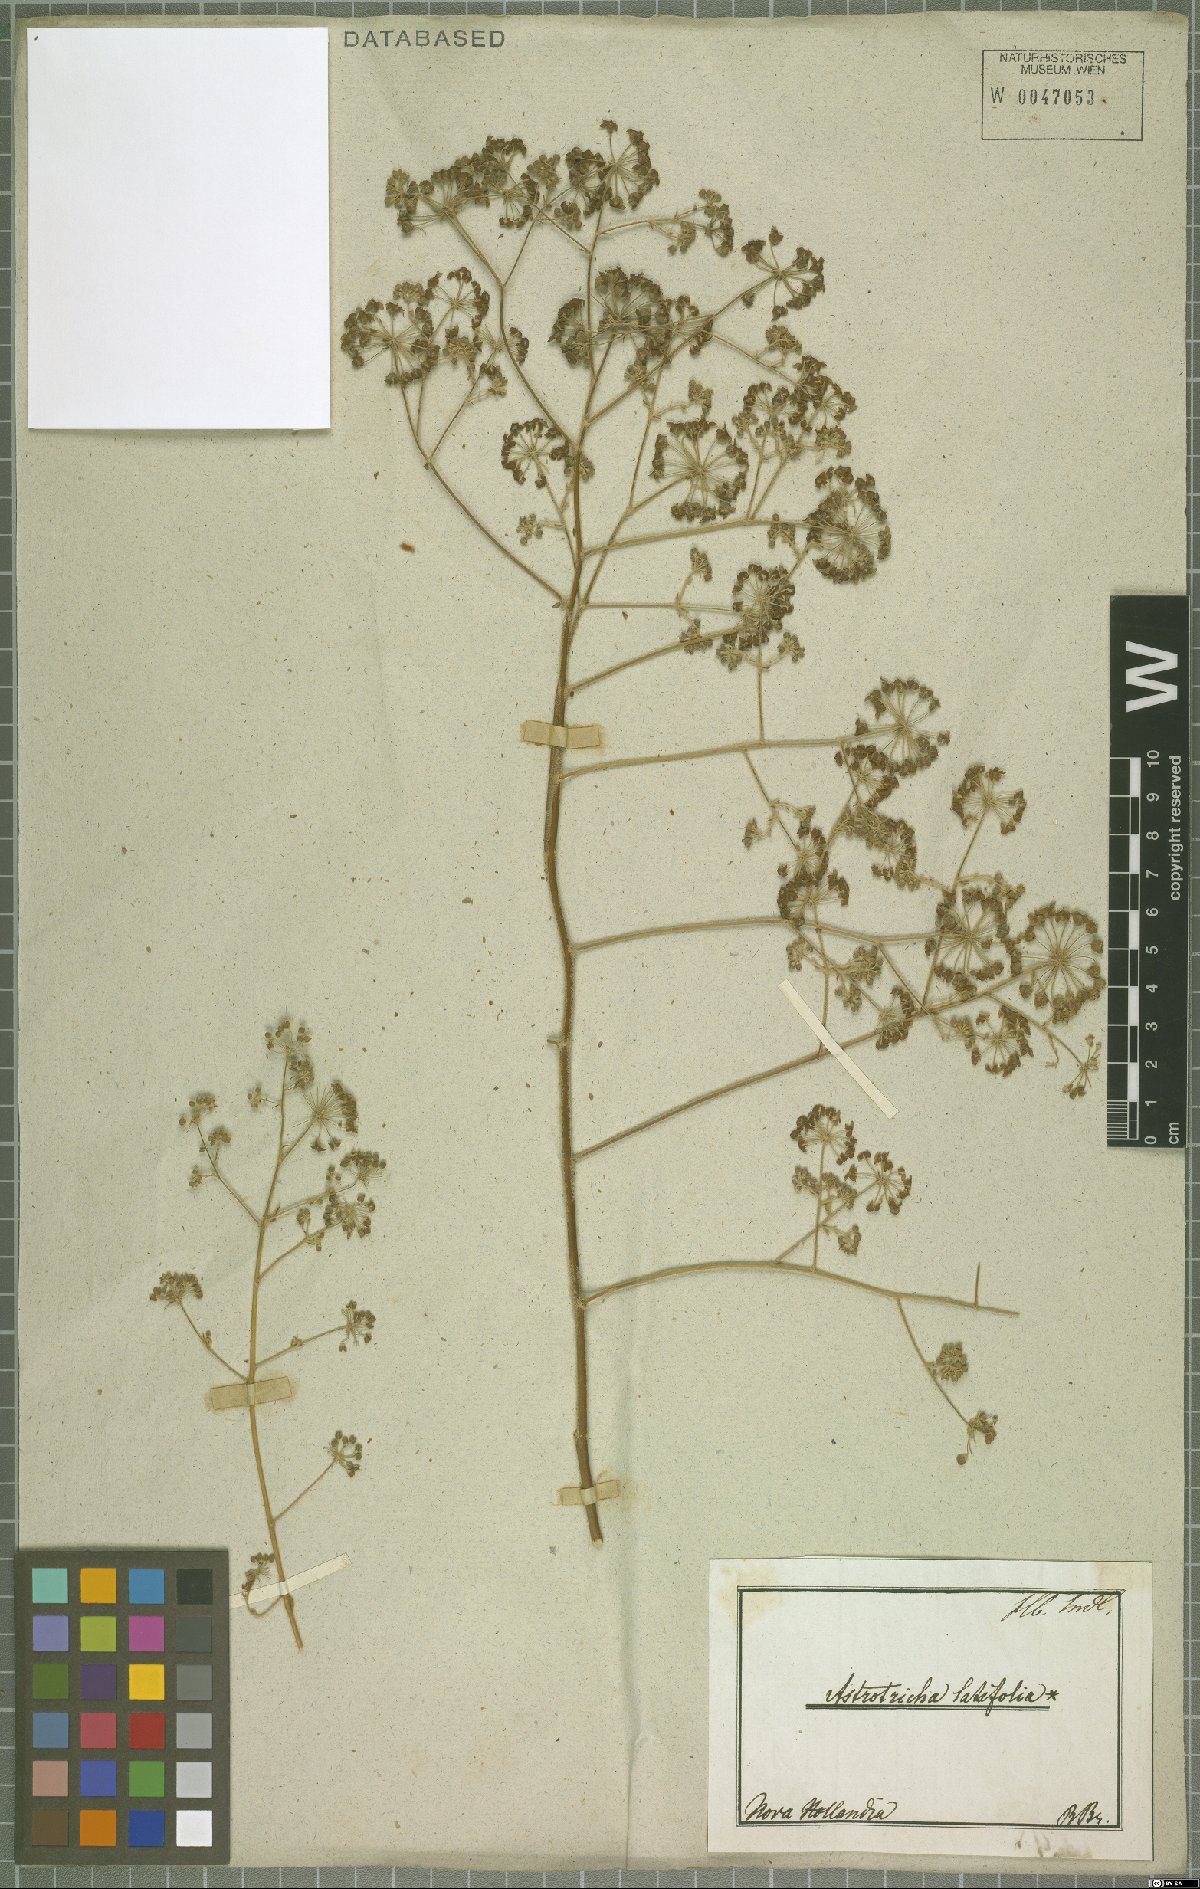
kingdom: Plantae
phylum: Tracheophyta
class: Magnoliopsida
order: Apiales
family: Araliaceae
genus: Astrotricha
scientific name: Astrotricha latifolia
